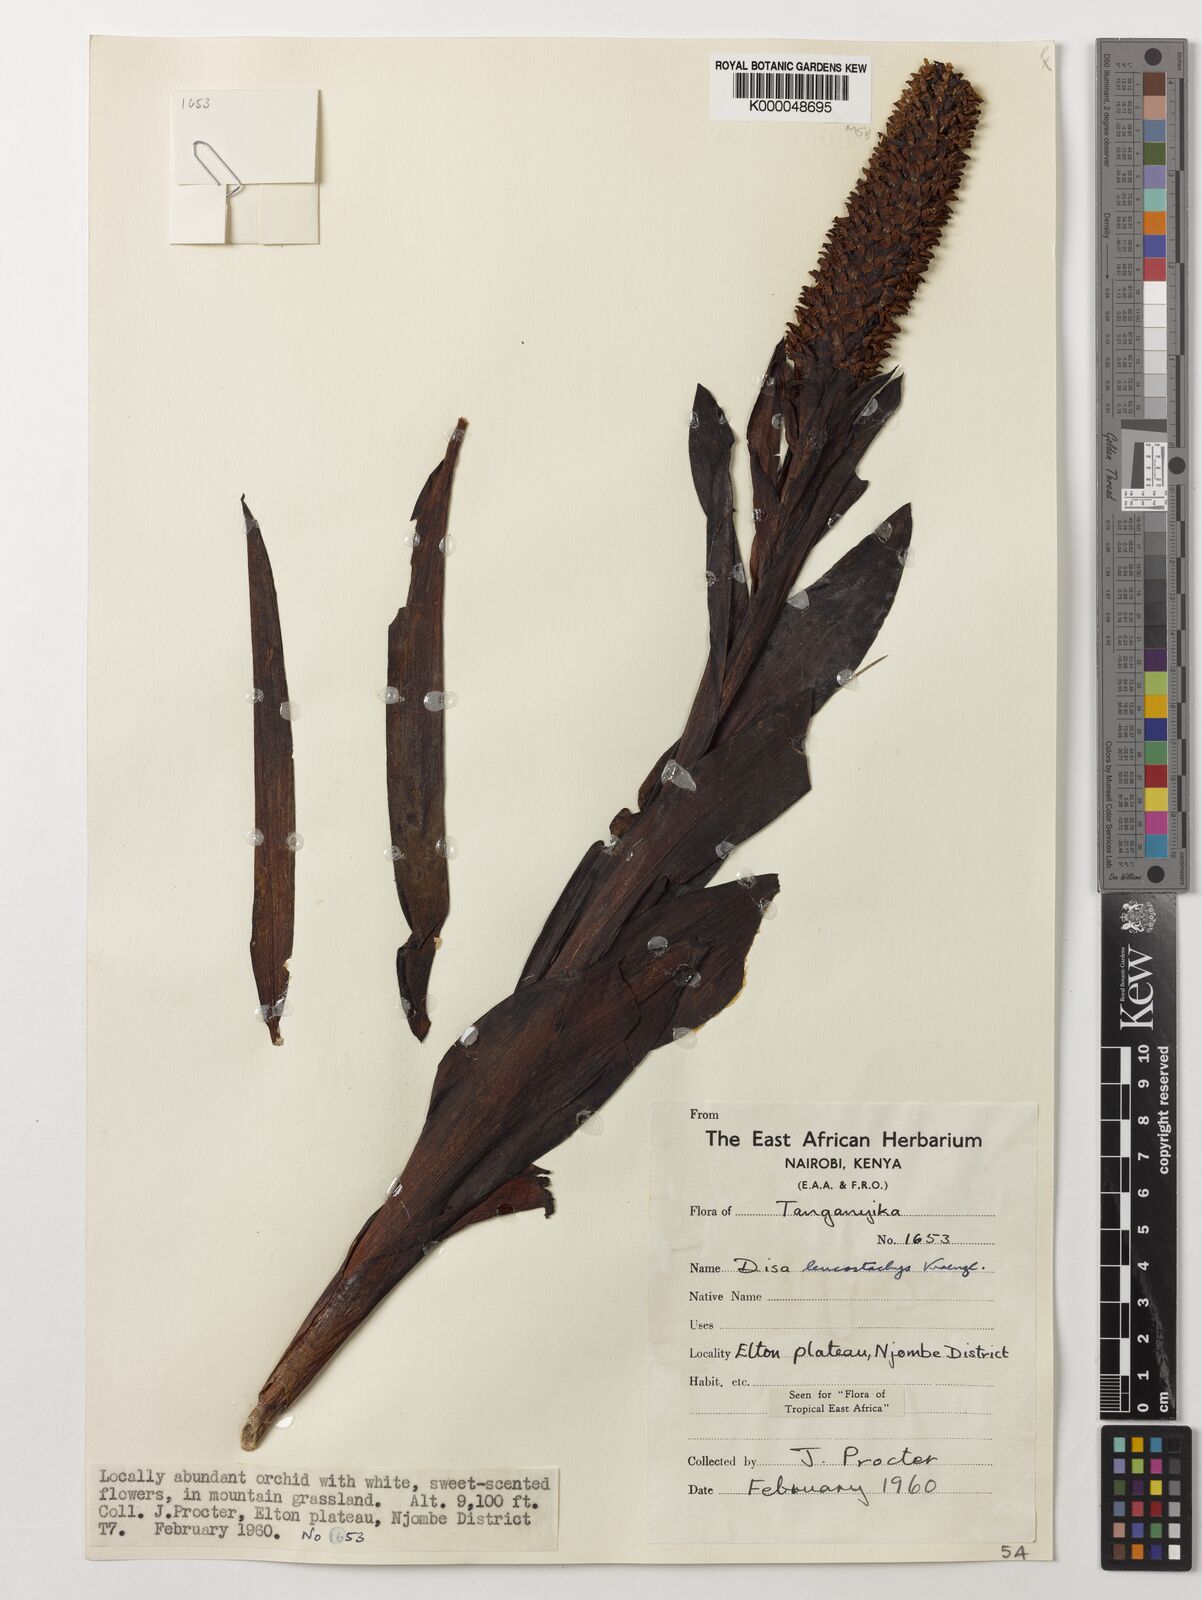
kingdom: Plantae
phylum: Tracheophyta
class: Liliopsida
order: Asparagales
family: Orchidaceae
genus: Disa
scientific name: Disa fragrans
